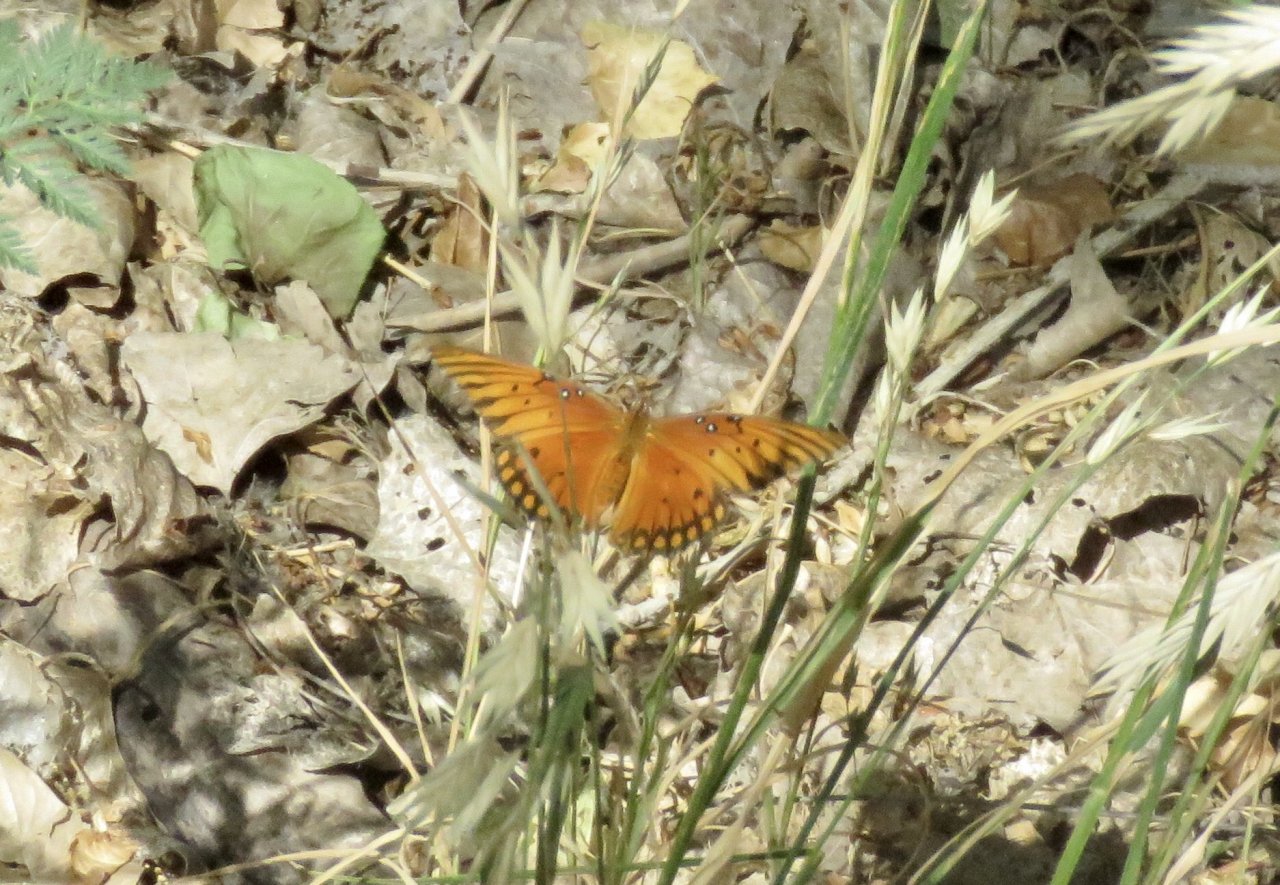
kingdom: Animalia
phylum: Arthropoda
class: Insecta
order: Lepidoptera
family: Nymphalidae
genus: Dione
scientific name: Dione vanillae
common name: Gulf Fritillary
